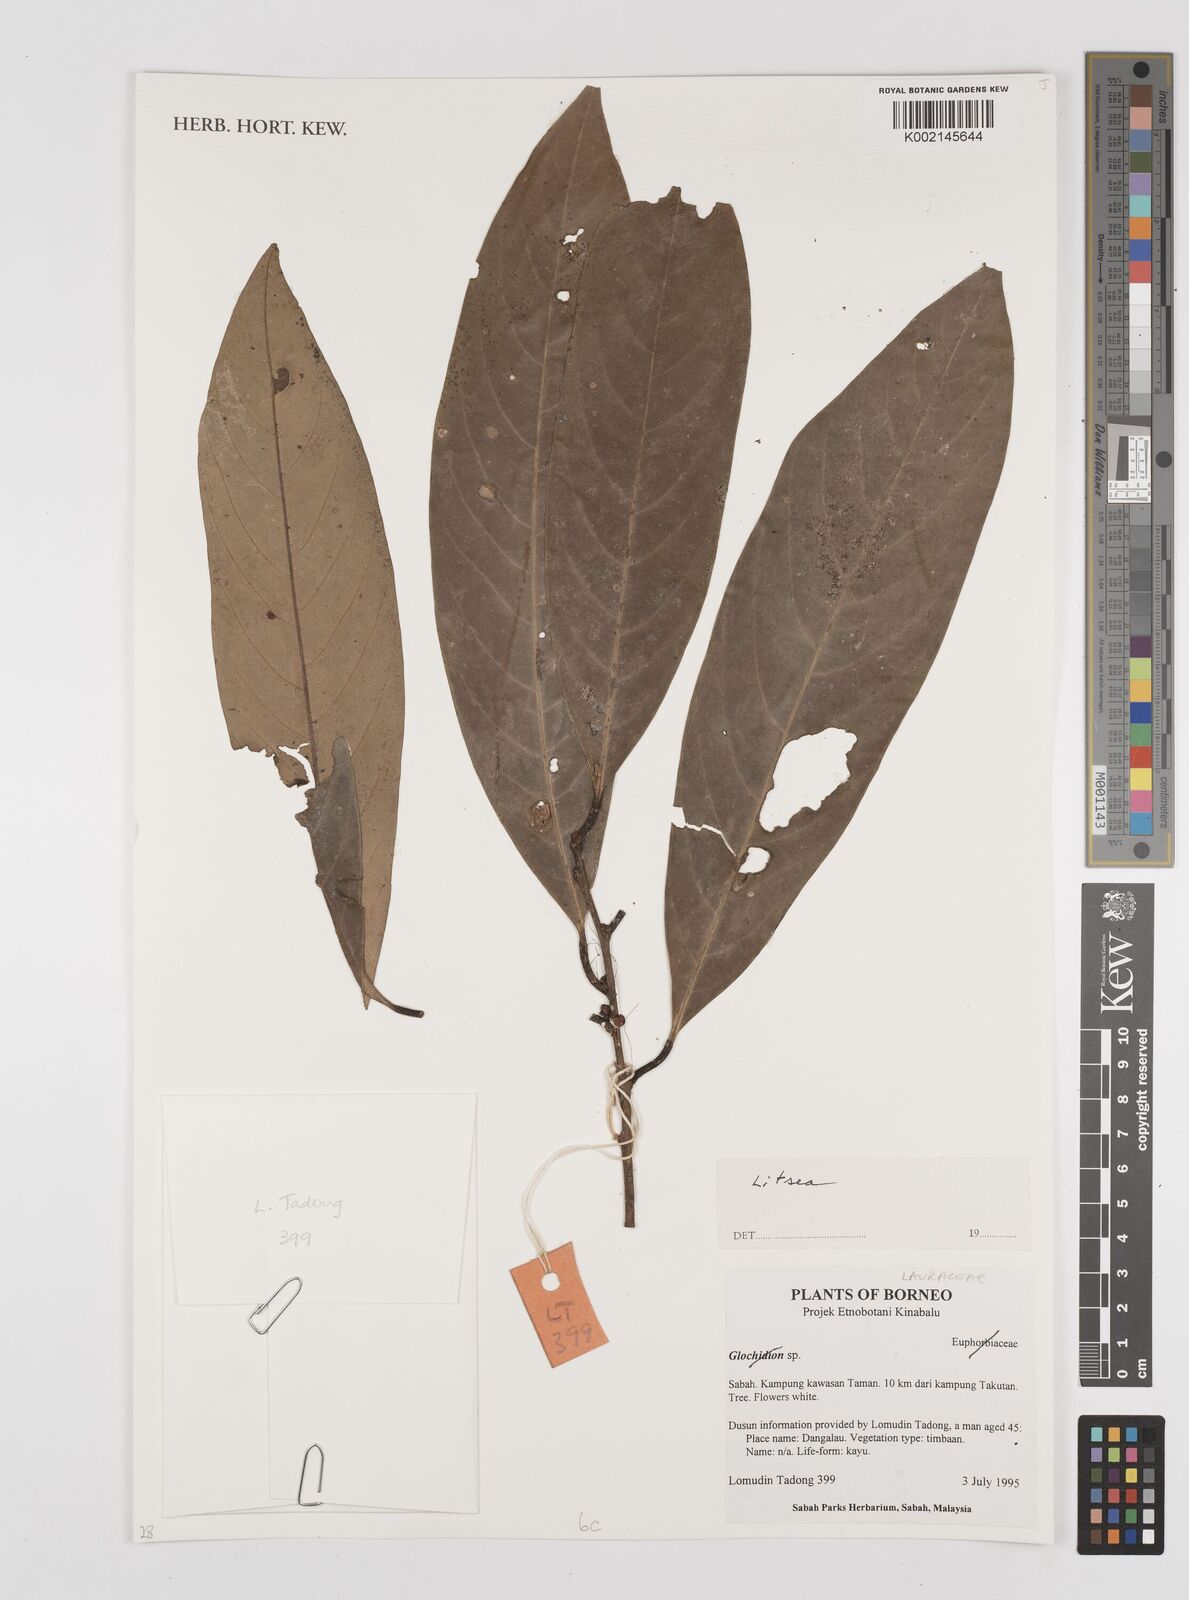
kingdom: Plantae
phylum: Tracheophyta
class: Magnoliopsida
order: Laurales
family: Lauraceae
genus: Litsea
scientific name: Litsea
